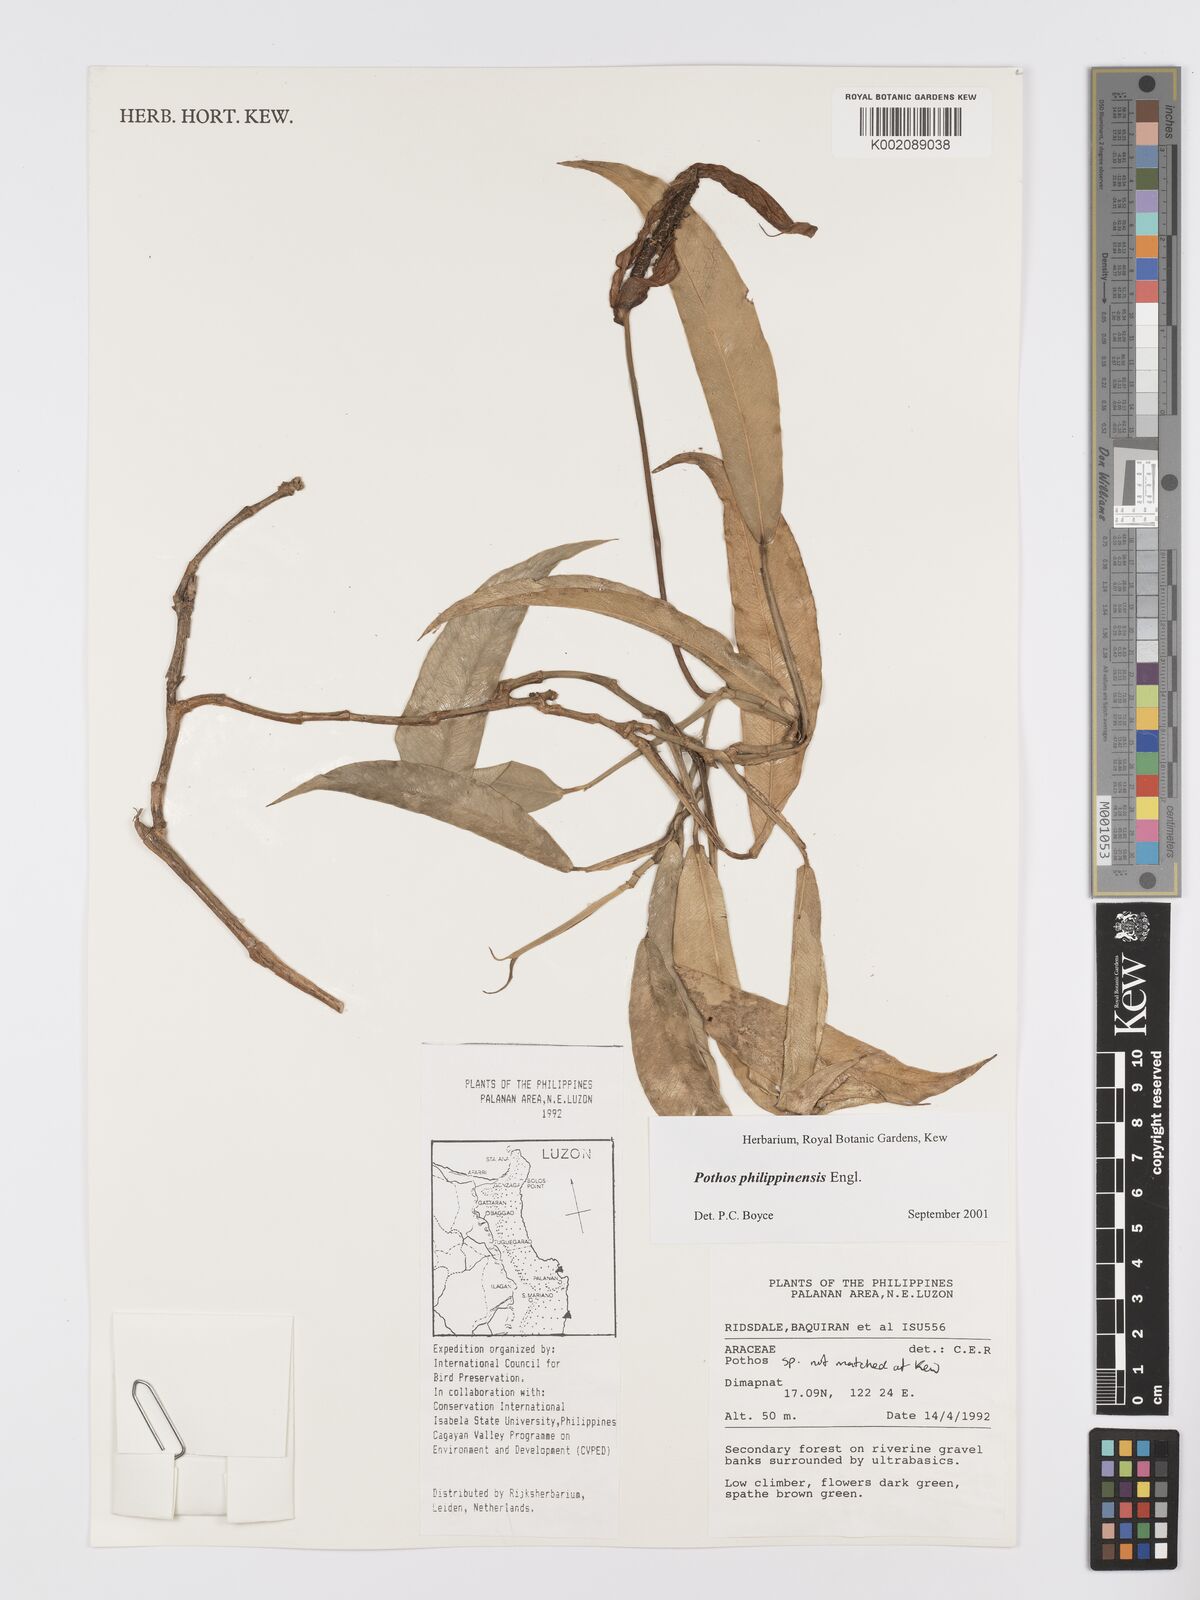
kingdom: Plantae
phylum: Tracheophyta
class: Liliopsida
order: Alismatales
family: Araceae
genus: Pothos
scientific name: Pothos philippinensis
